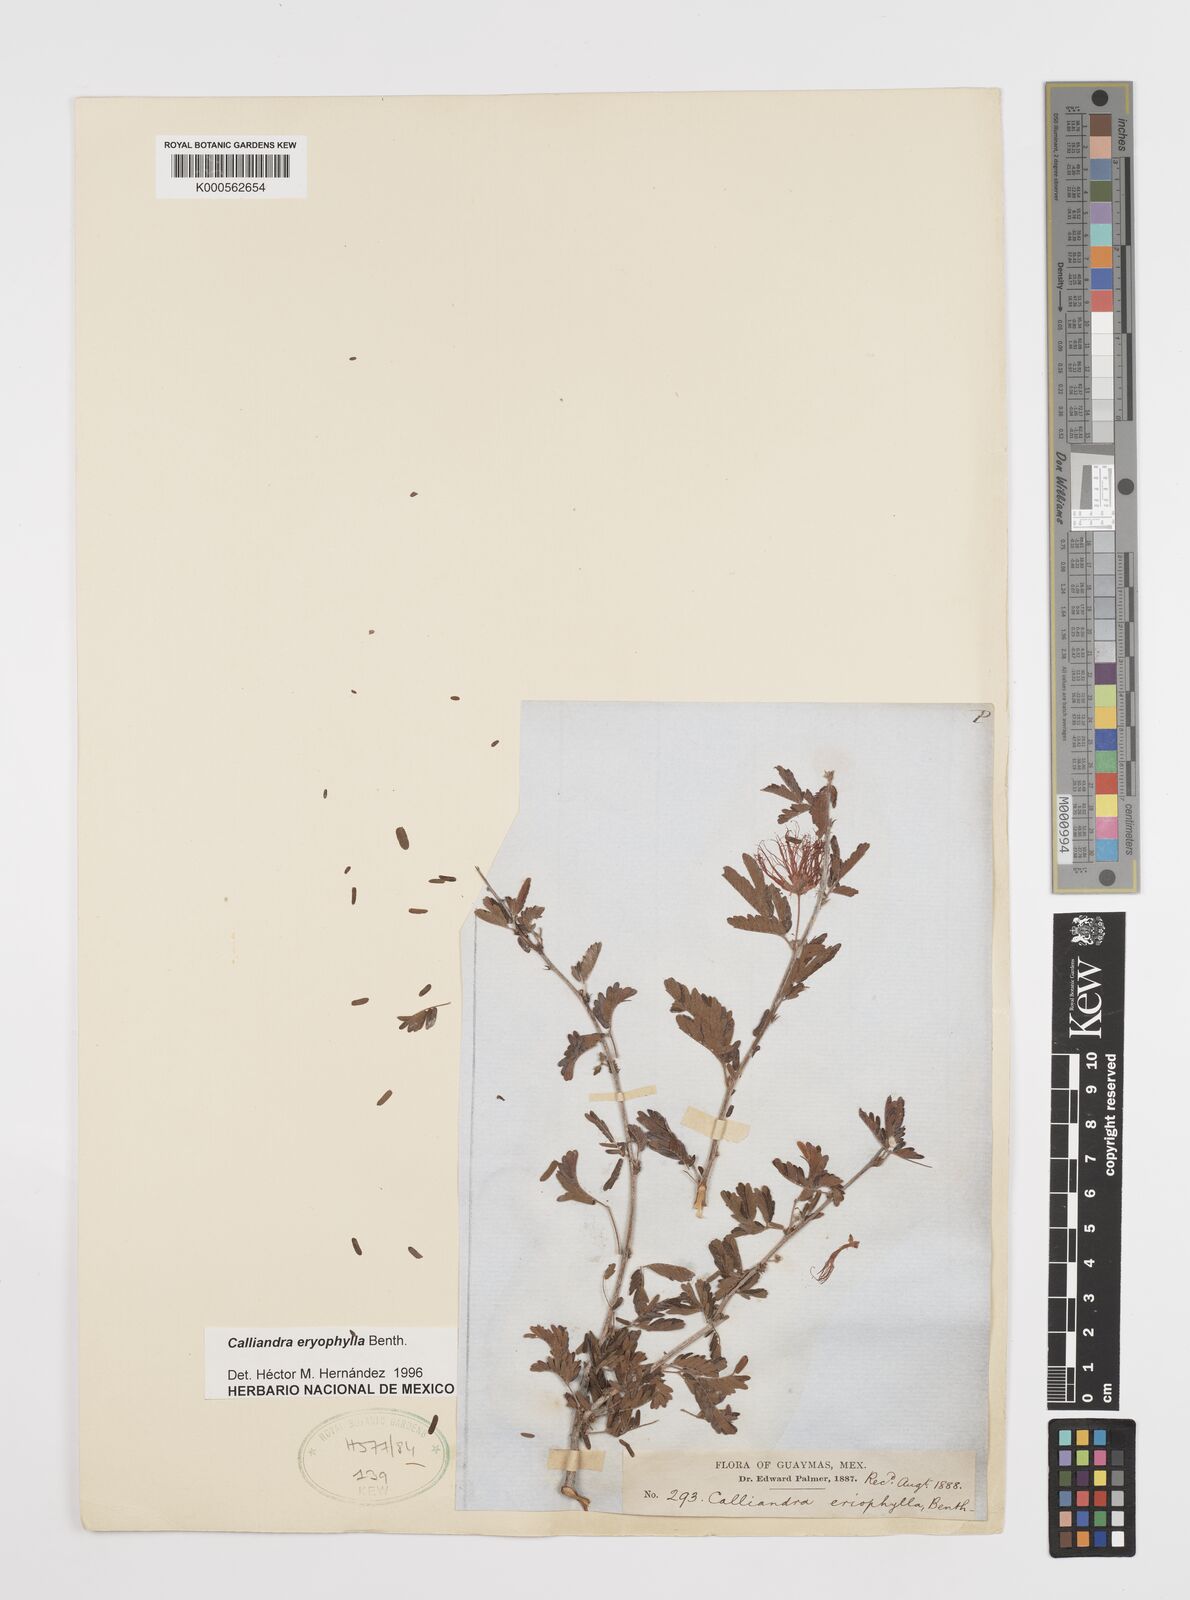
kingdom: Plantae
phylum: Tracheophyta
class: Magnoliopsida
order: Fabales
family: Fabaceae
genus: Calliandra
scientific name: Calliandra eriophylla
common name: Fairy-duster
